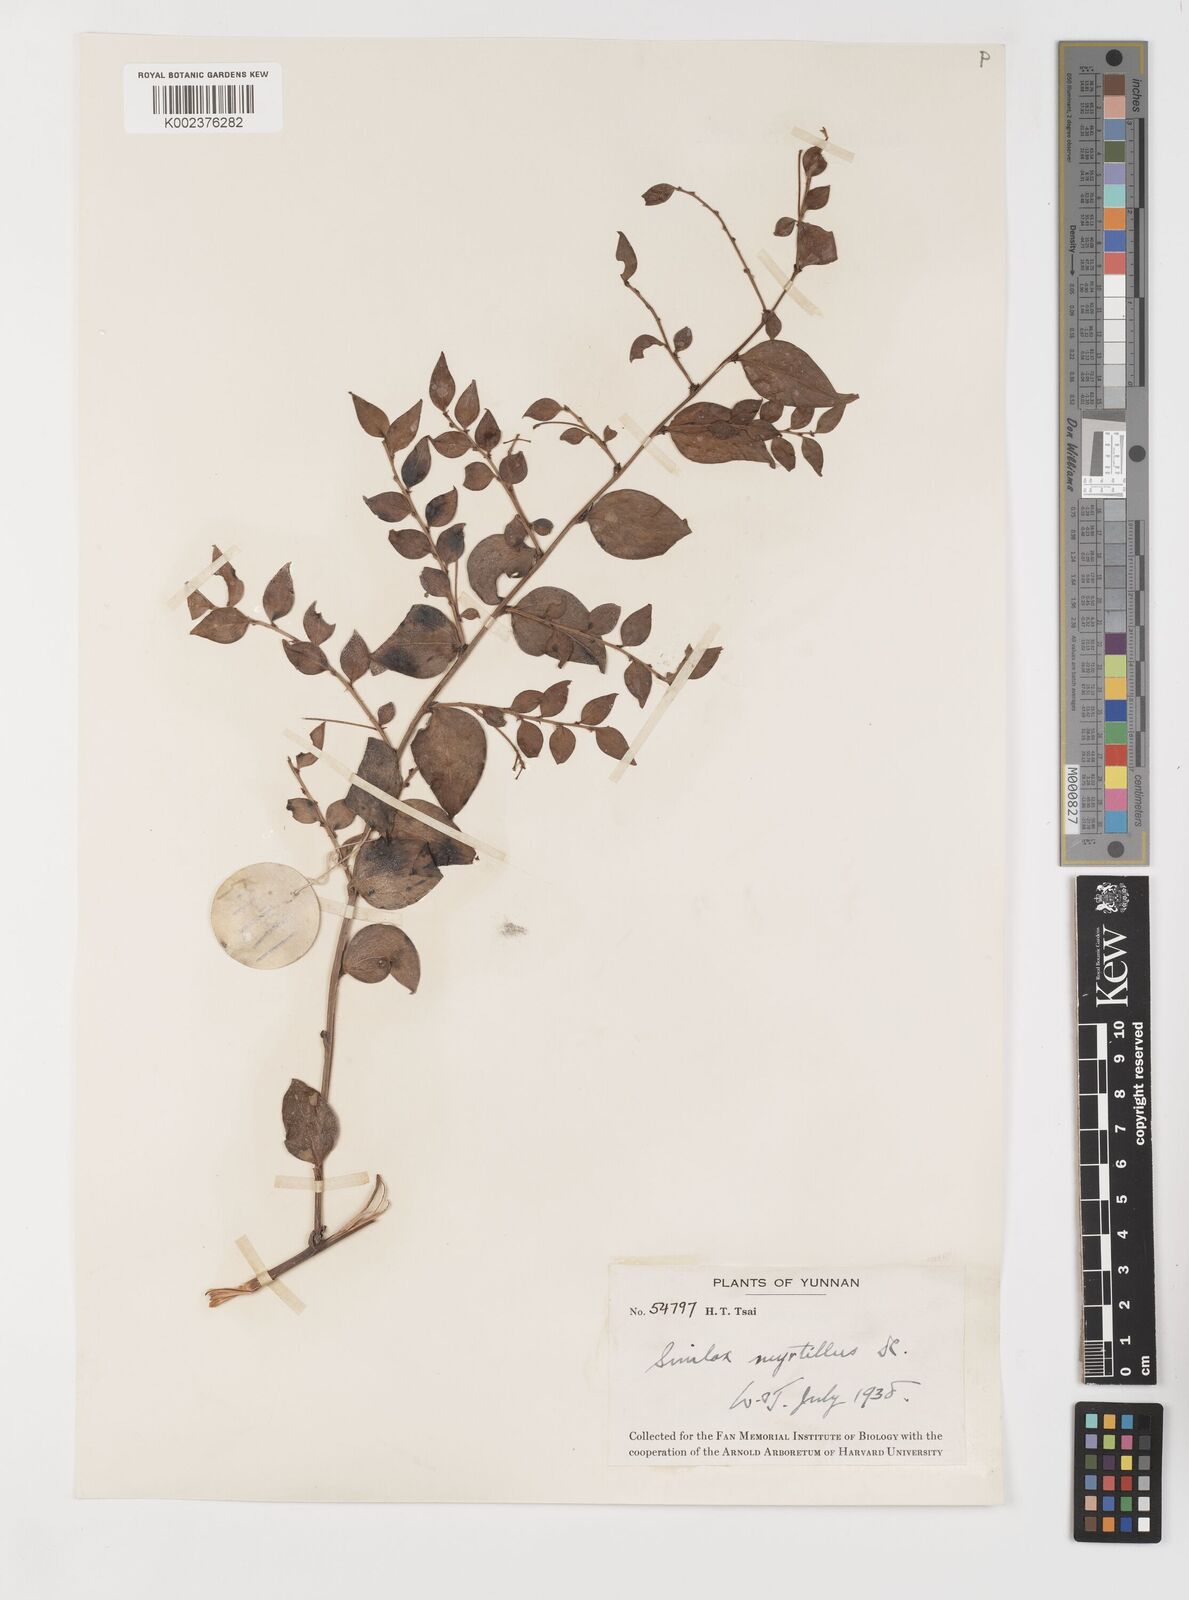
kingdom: Plantae
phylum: Tracheophyta
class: Liliopsida
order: Liliales
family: Smilacaceae
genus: Smilax
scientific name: Smilax myrtillus
